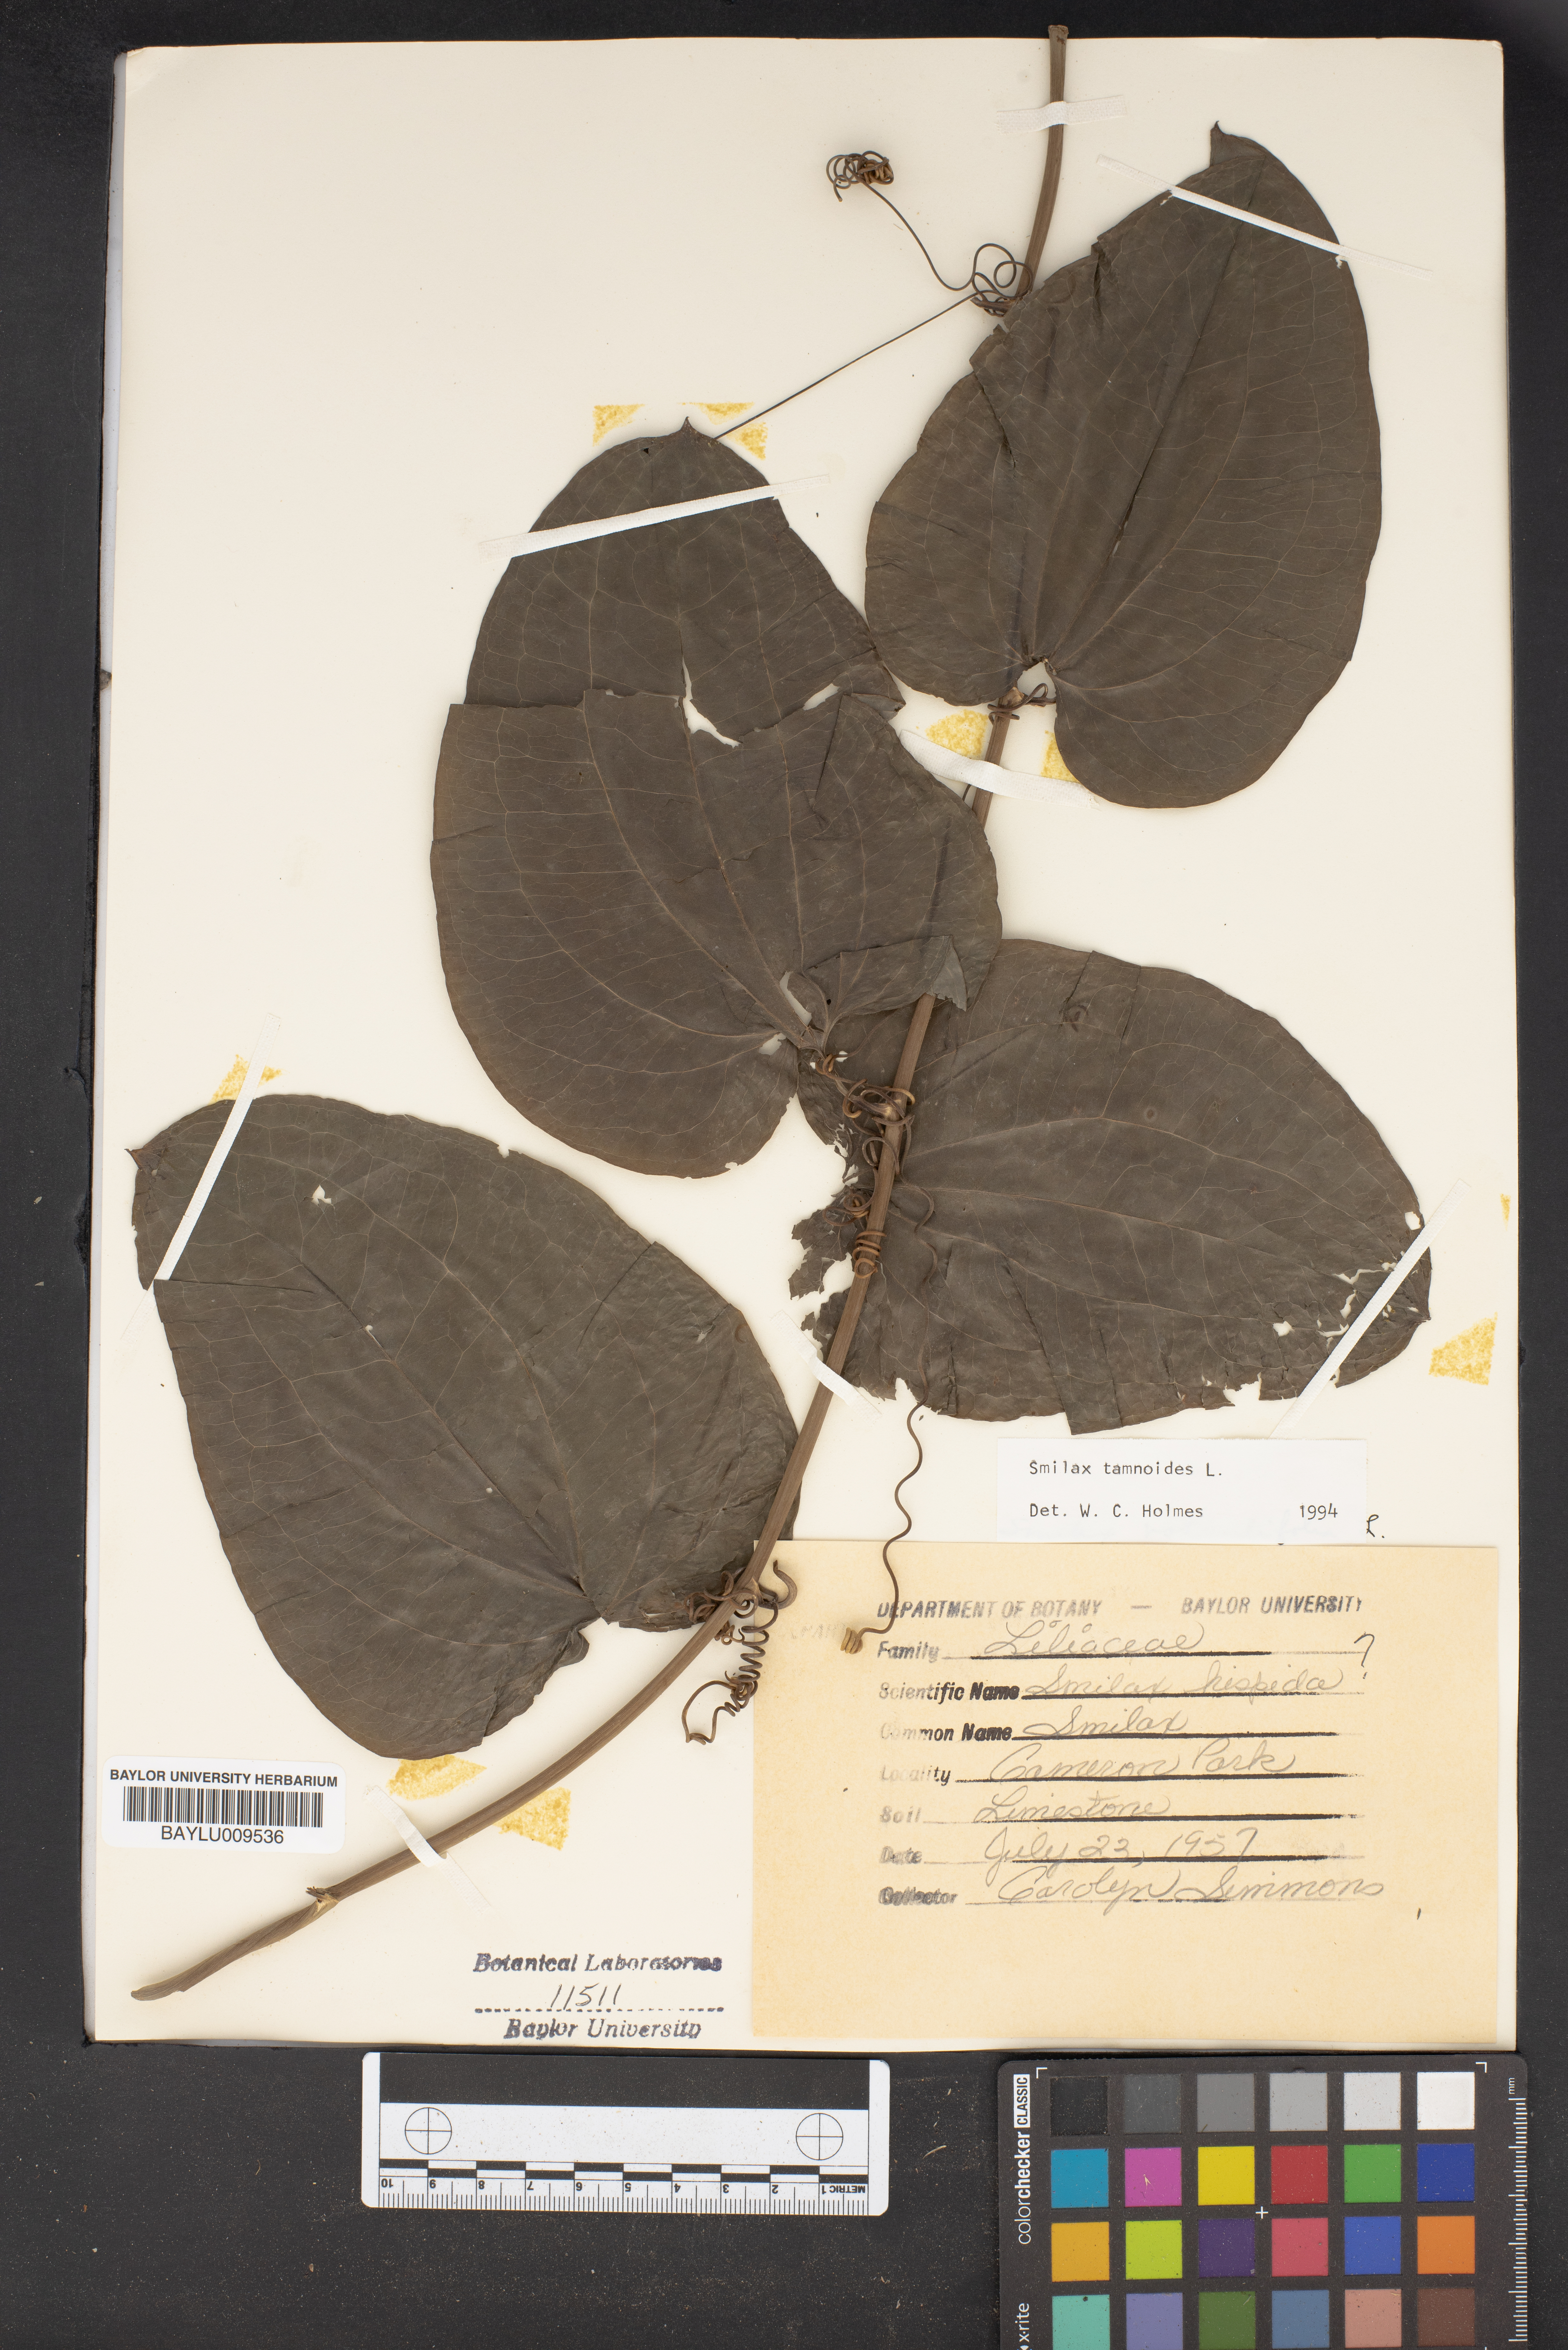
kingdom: Plantae
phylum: Tracheophyta
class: Liliopsida
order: Liliales
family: Smilacaceae
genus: Smilax
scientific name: Smilax tamnoides
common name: Hellfetter
